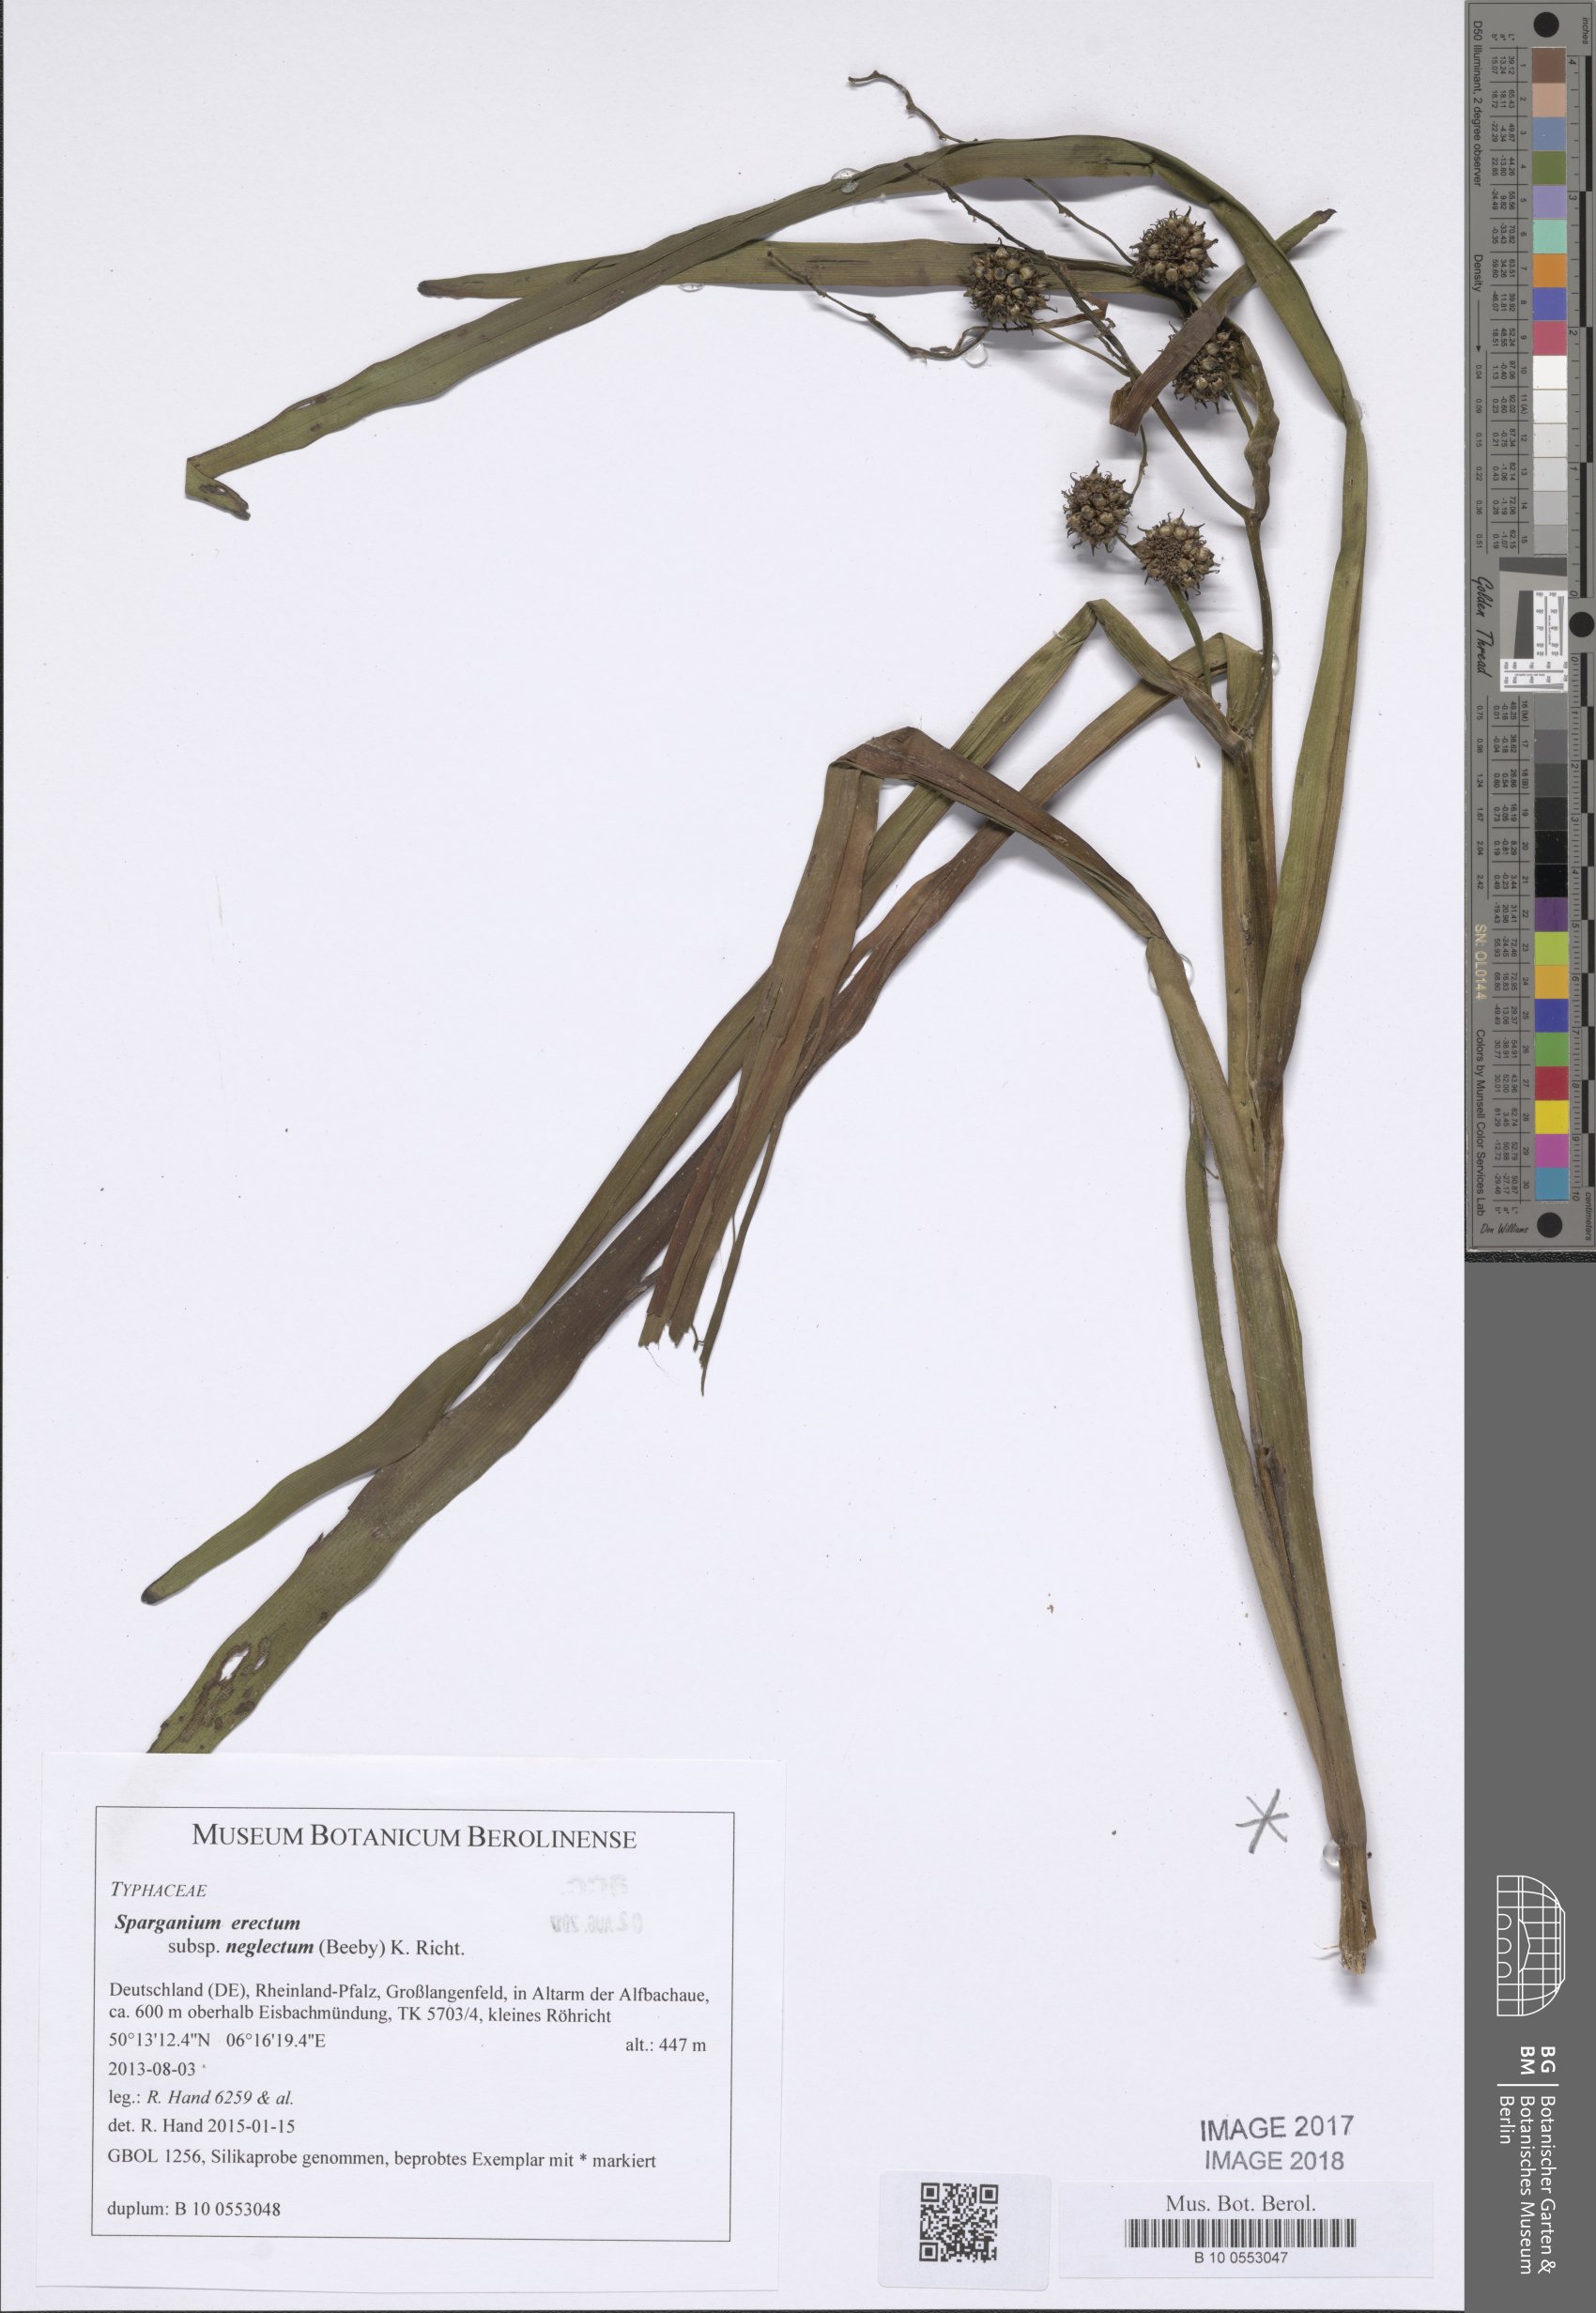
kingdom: Plantae
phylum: Tracheophyta
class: Liliopsida
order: Poales
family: Typhaceae
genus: Sparganium
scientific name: Sparganium erectum
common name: Branched bur-reed
